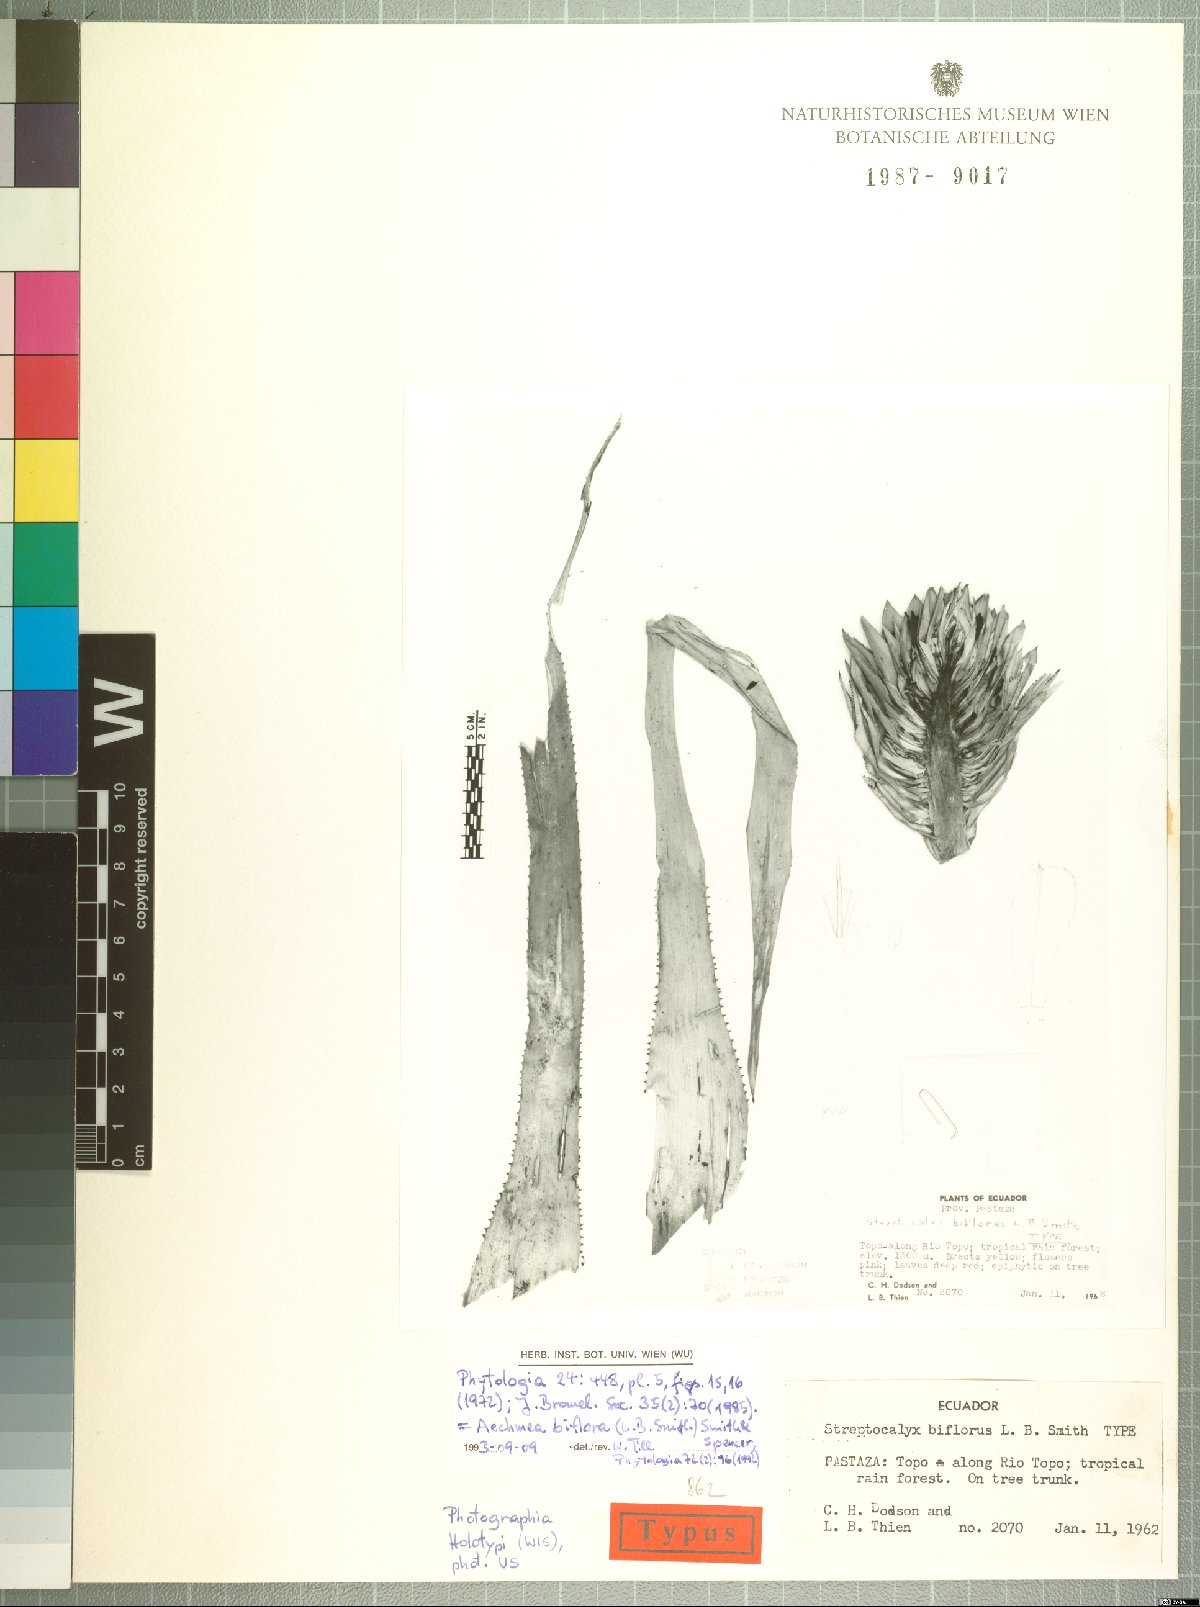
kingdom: Plantae
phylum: Tracheophyta
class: Liliopsida
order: Poales
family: Bromeliaceae
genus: Aechmea
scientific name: Aechmea biflora
